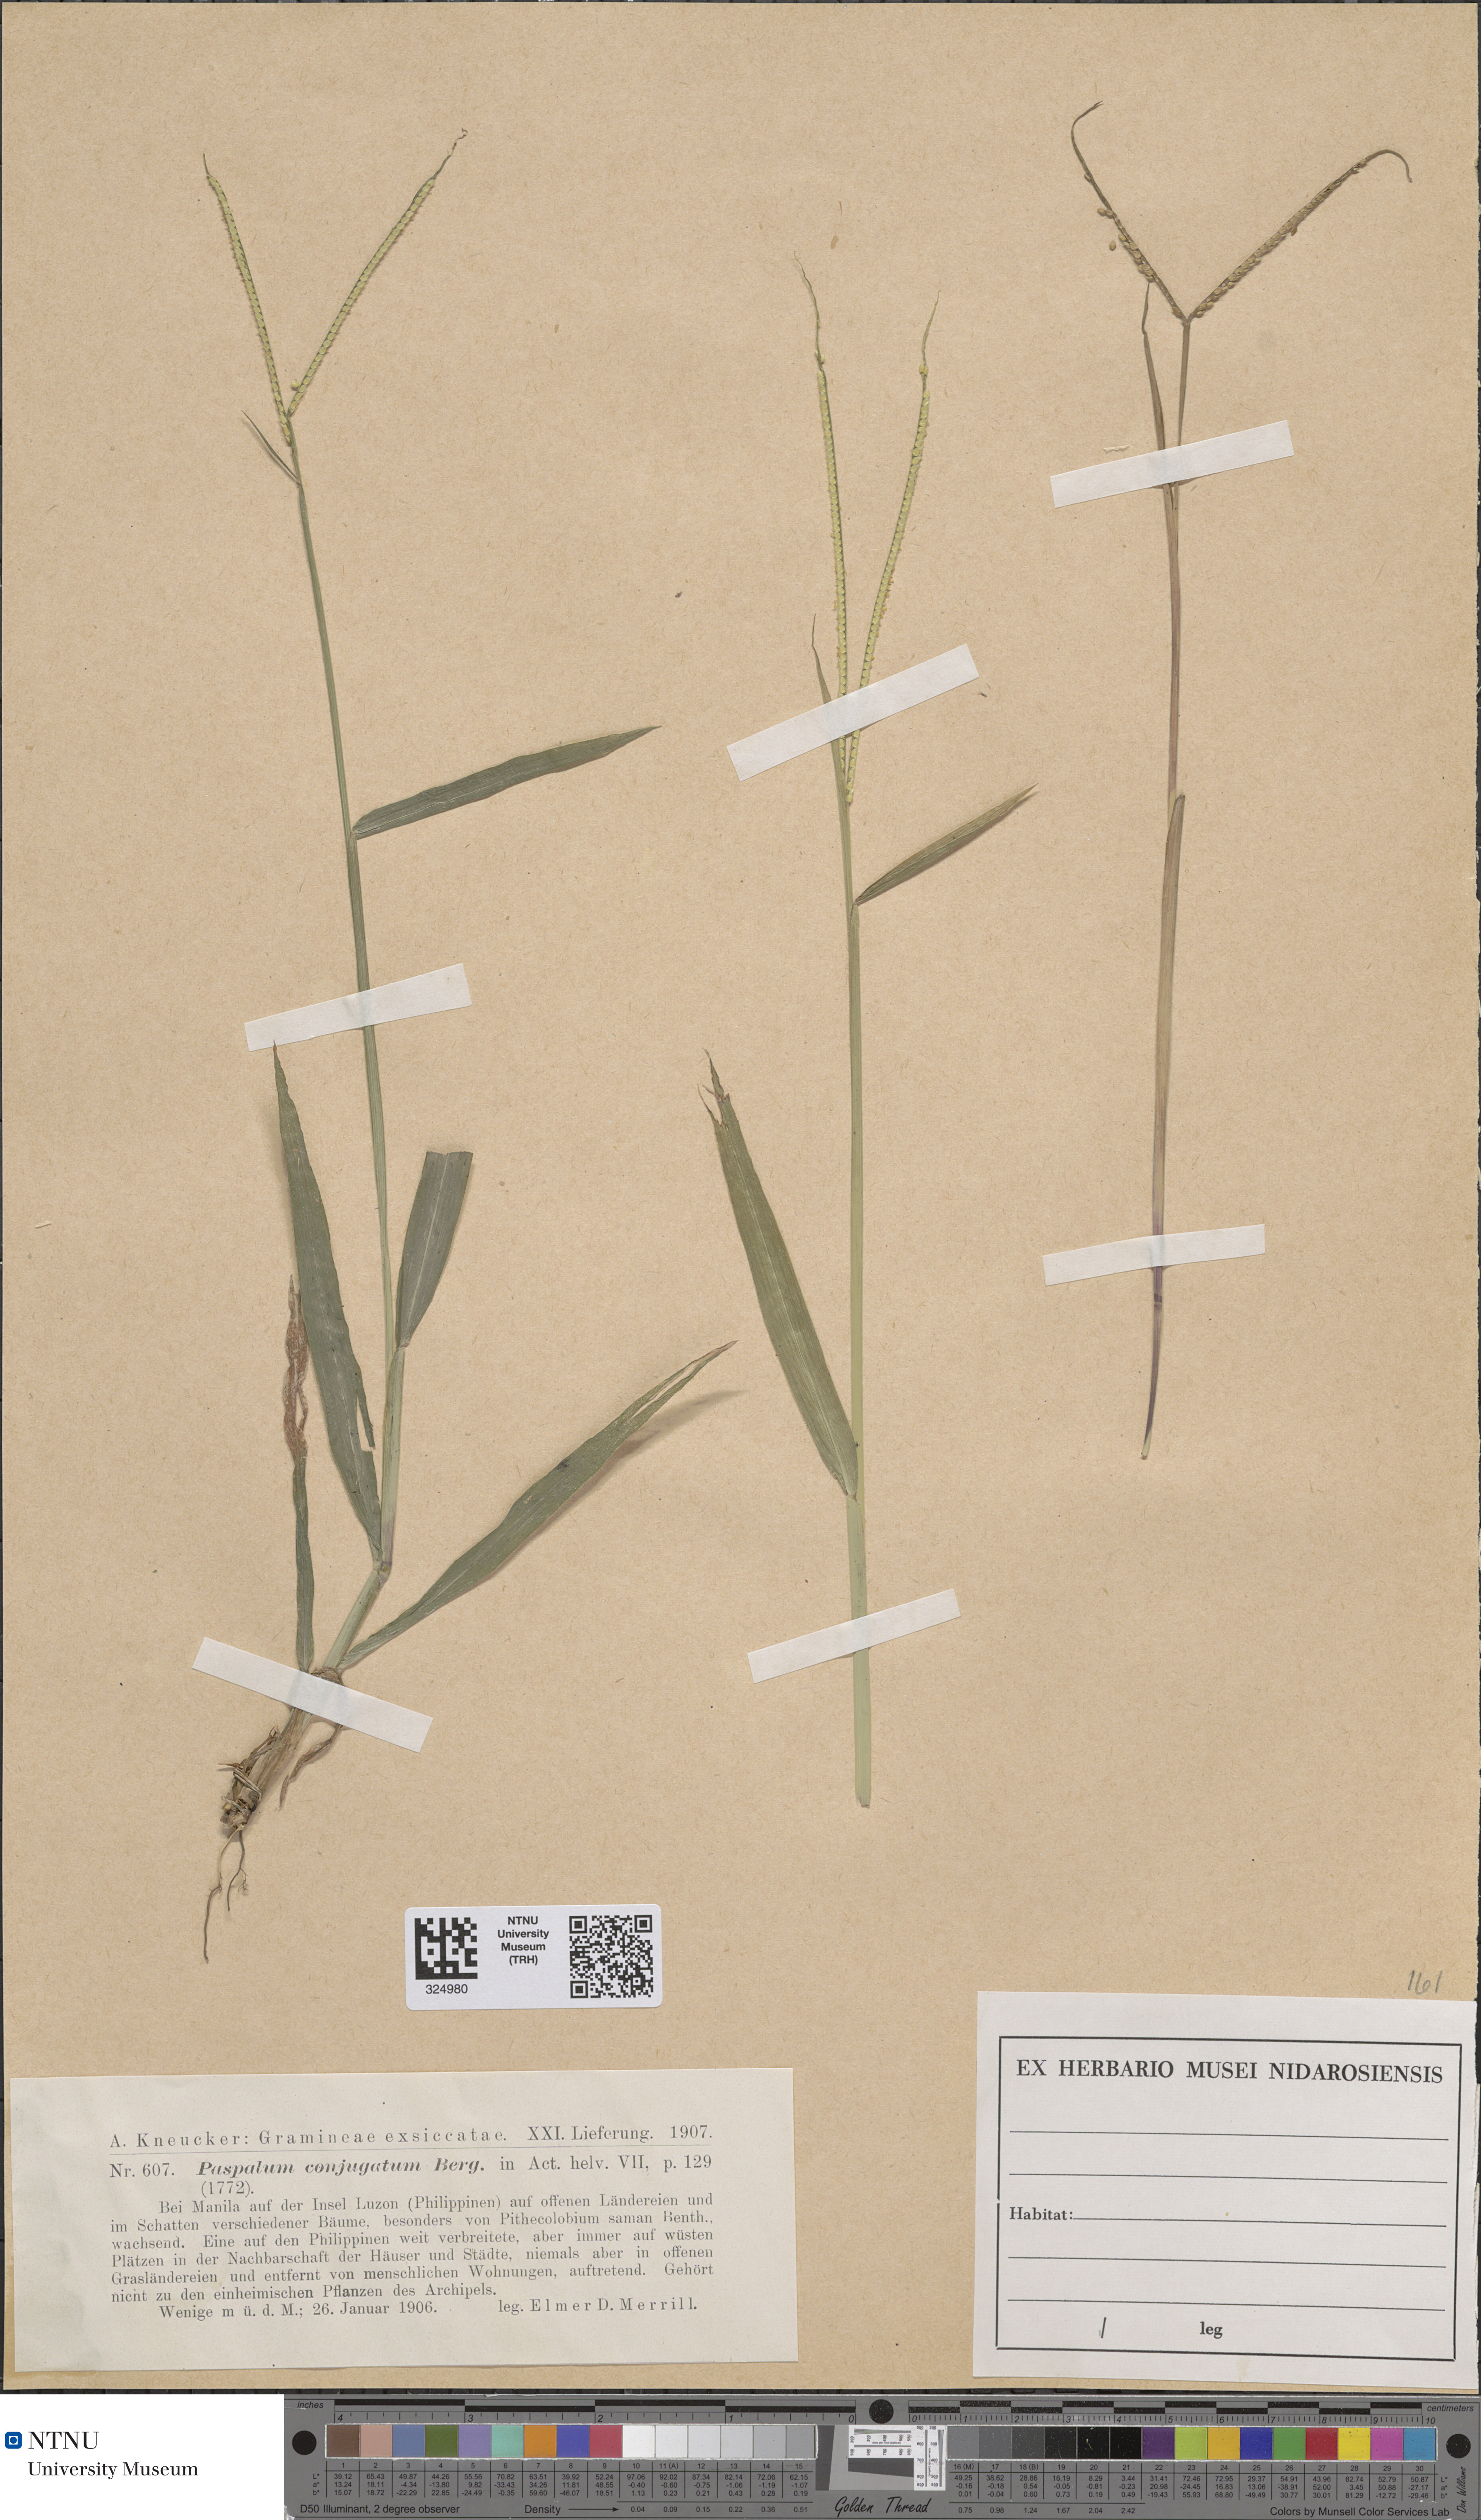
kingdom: Plantae
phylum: Tracheophyta
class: Liliopsida
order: Poales
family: Poaceae
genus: Paspalum
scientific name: Paspalum conjugatum
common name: Hilograss
